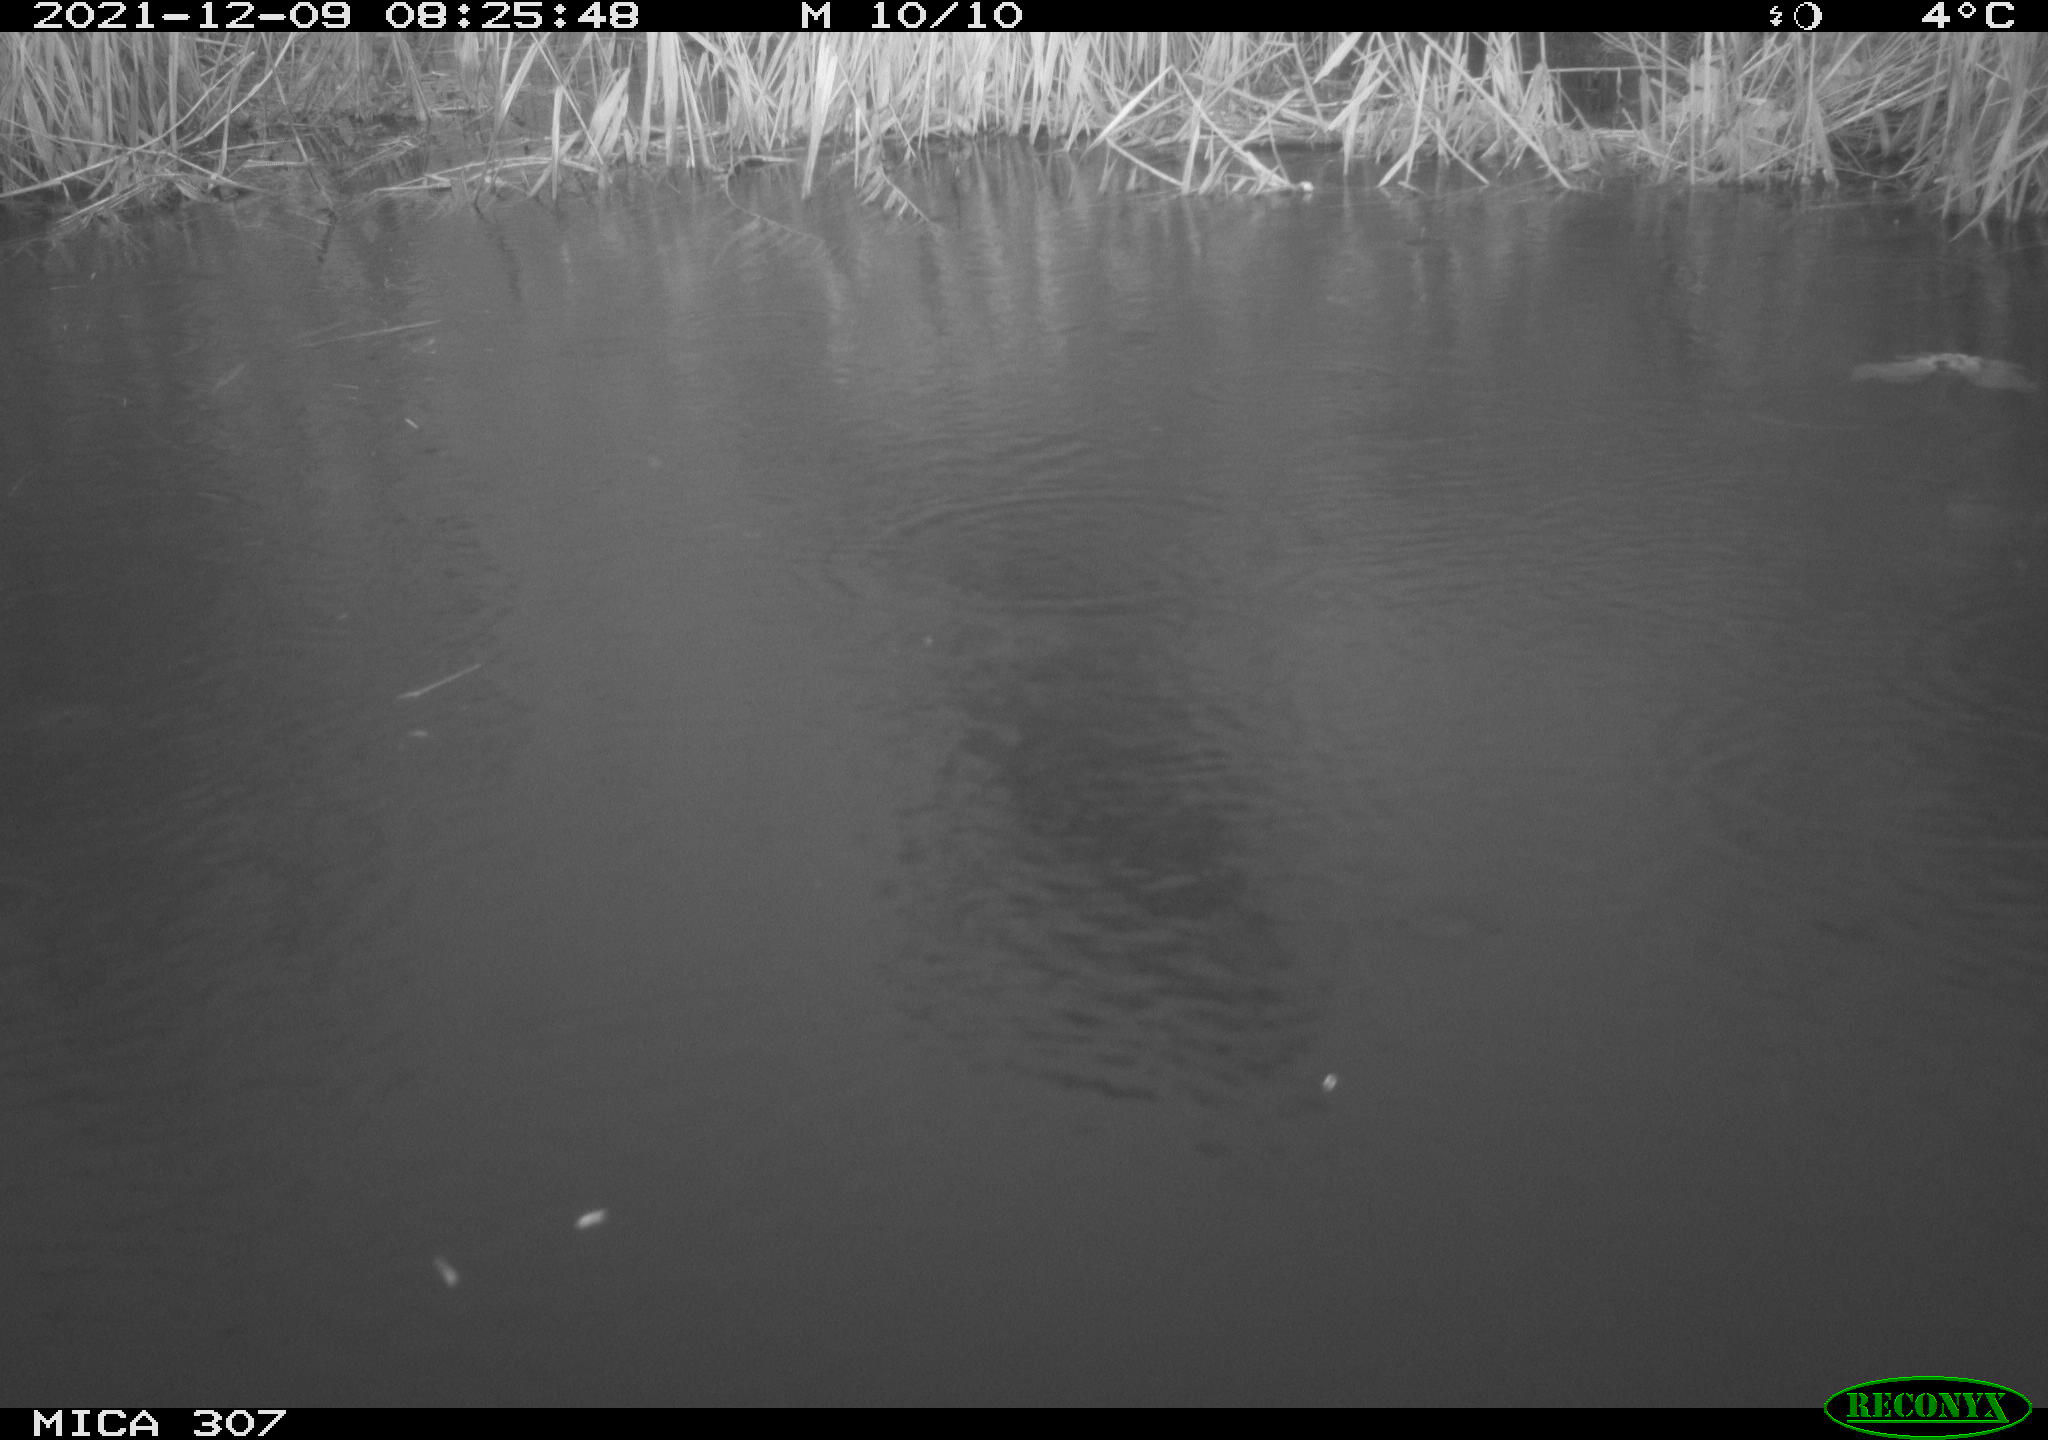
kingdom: Animalia
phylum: Chordata
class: Aves
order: Gruiformes
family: Rallidae
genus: Gallinula
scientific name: Gallinula chloropus
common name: Common moorhen
